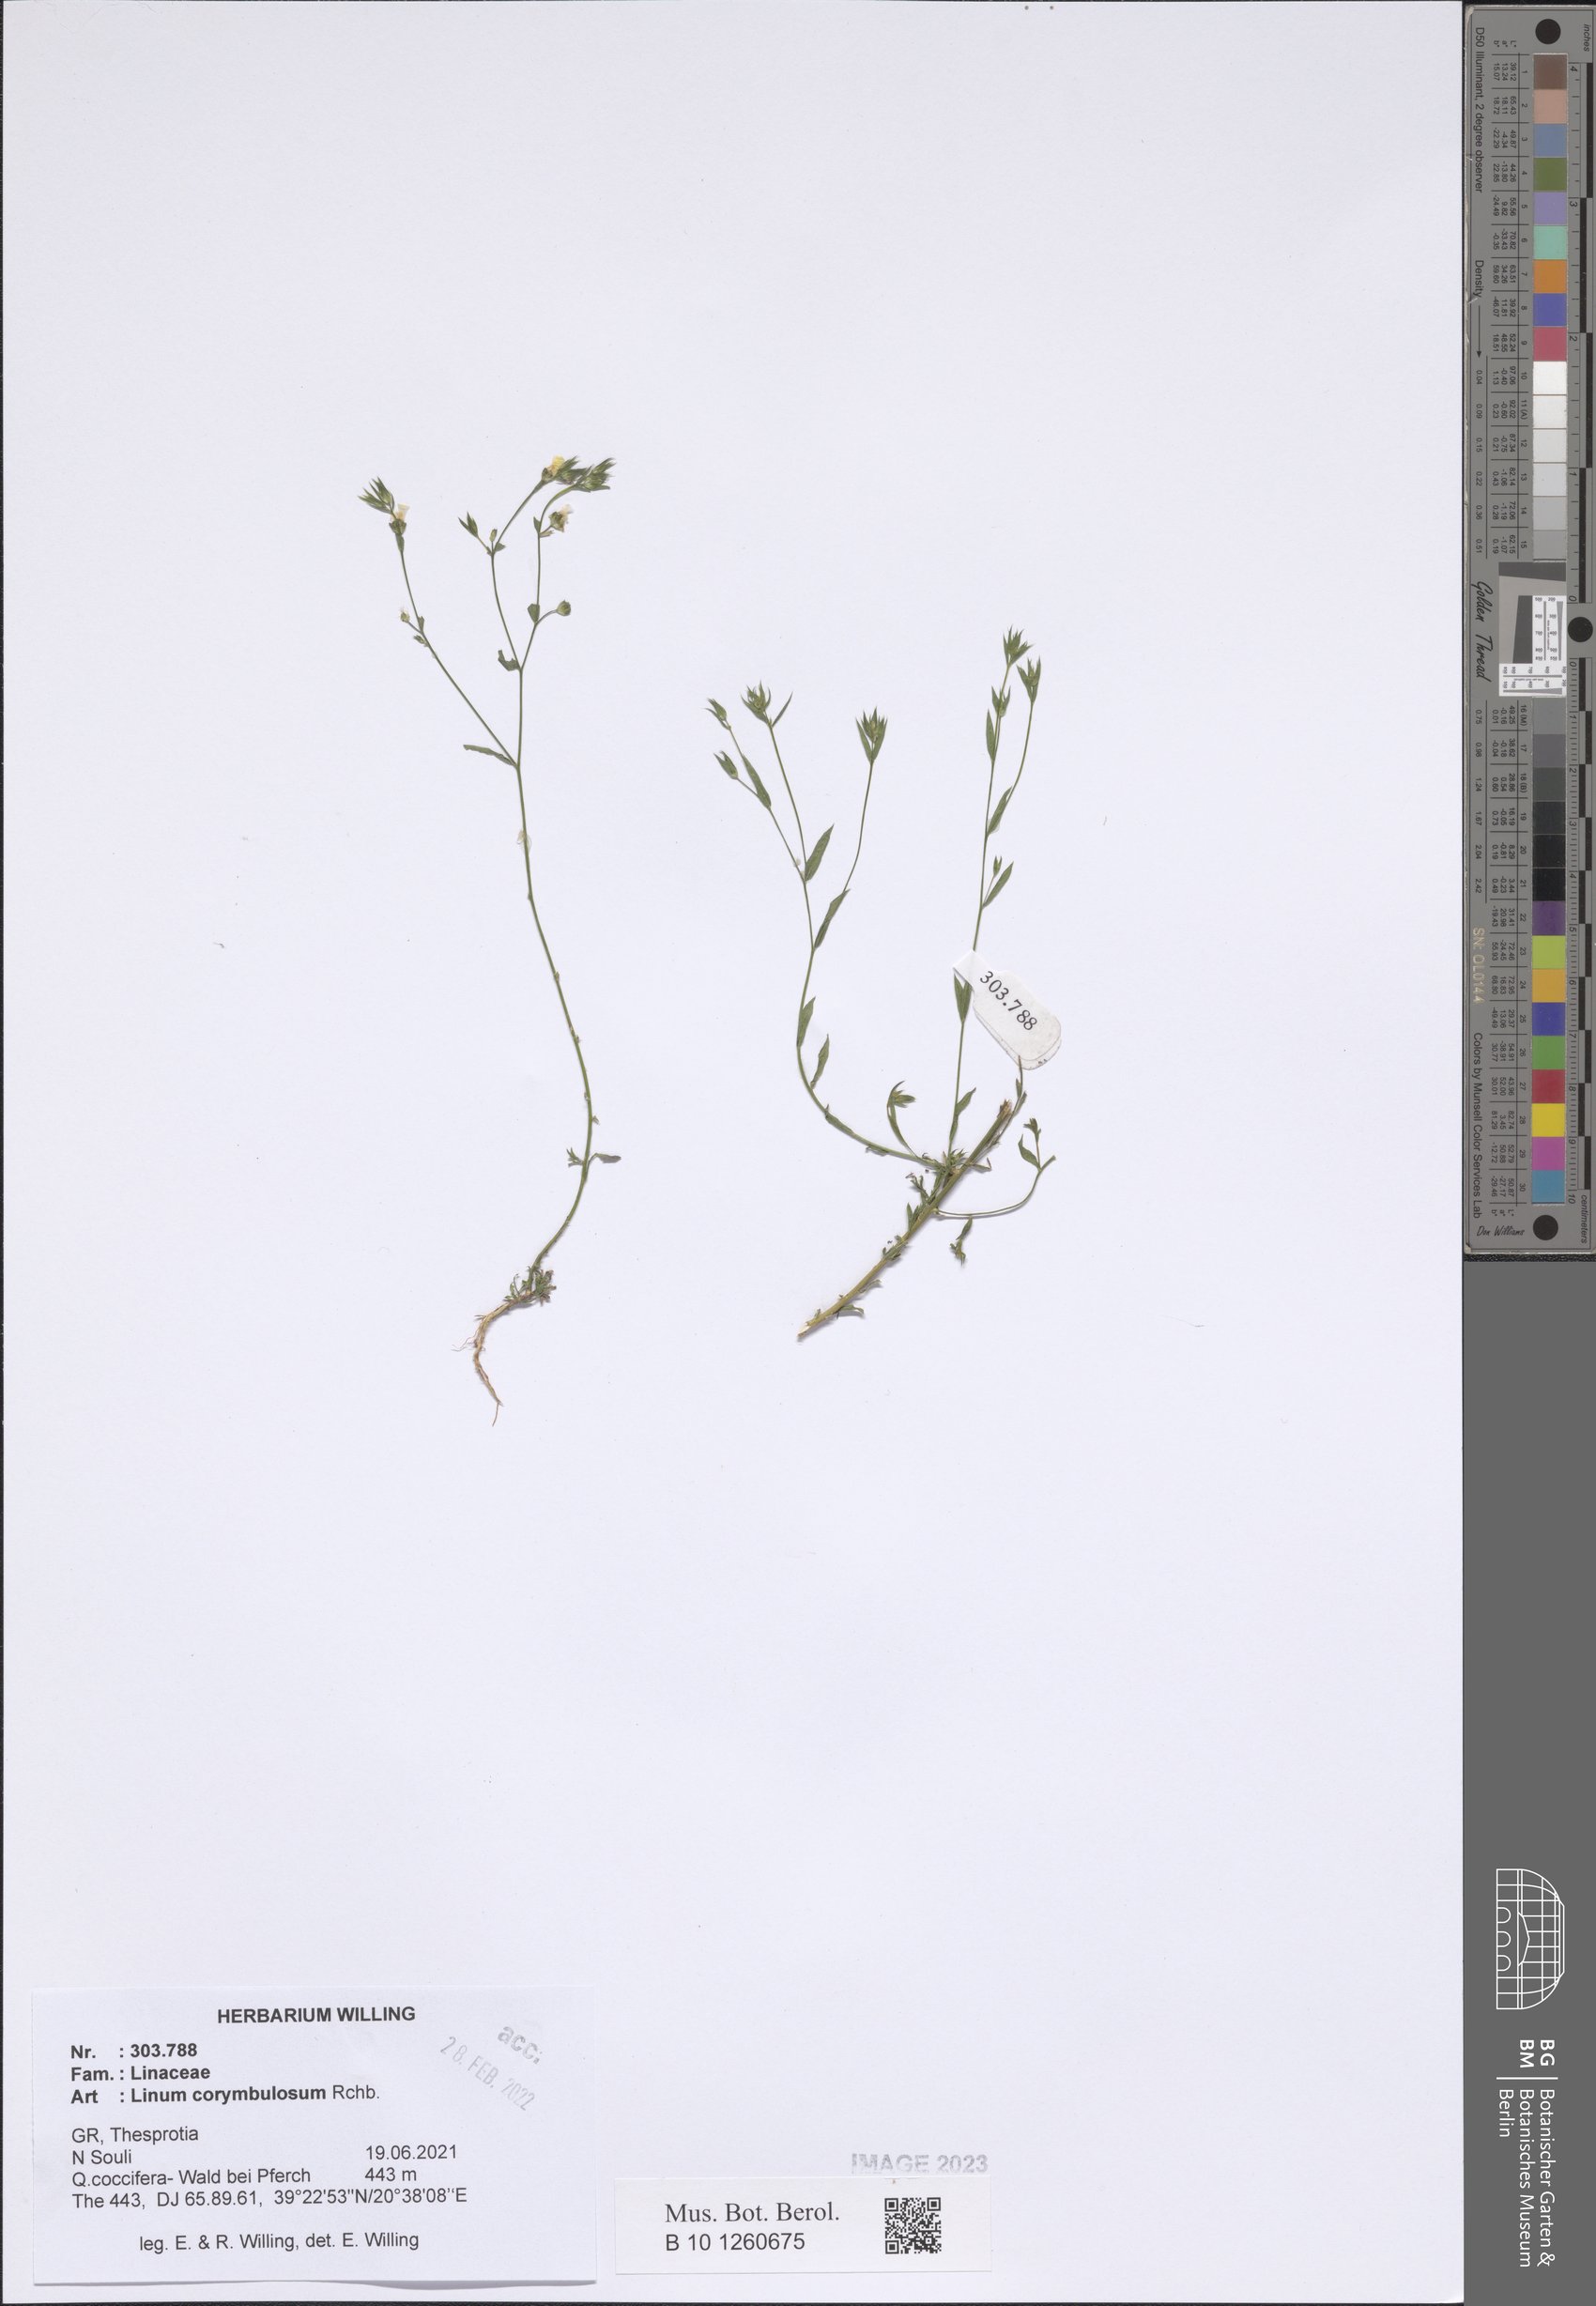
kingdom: Plantae
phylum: Tracheophyta
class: Magnoliopsida
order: Malpighiales
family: Linaceae
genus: Linum
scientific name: Linum corymbulosum
